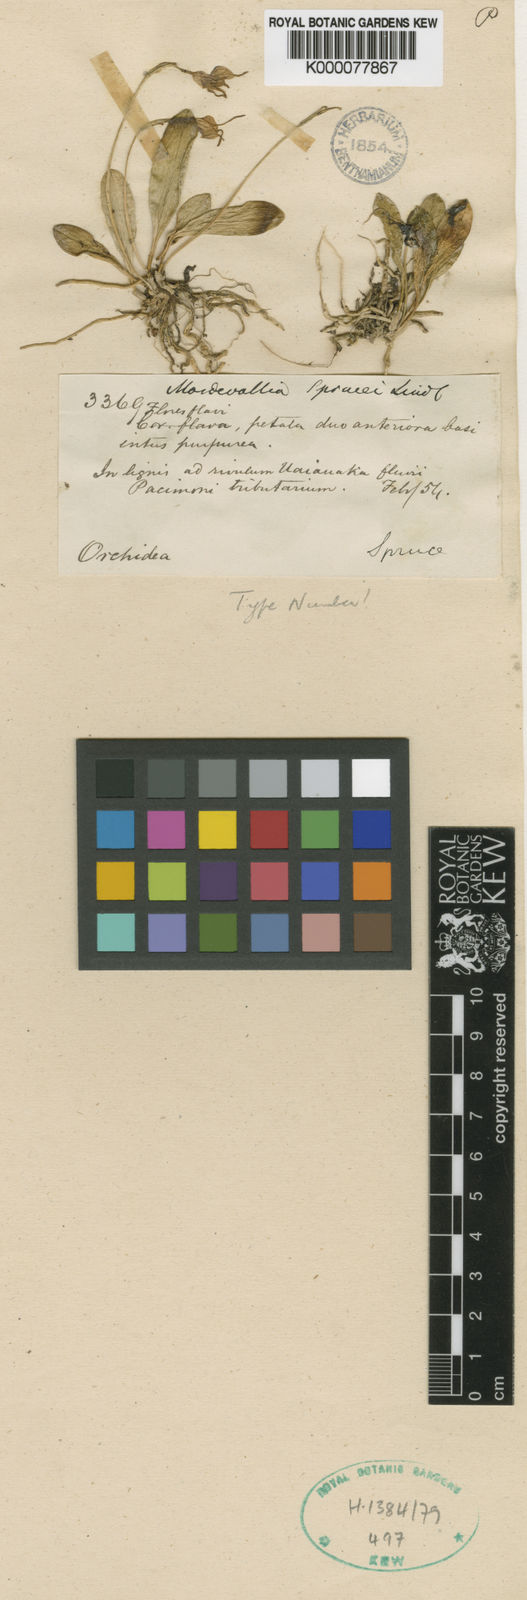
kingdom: Plantae
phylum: Tracheophyta
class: Liliopsida
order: Asparagales
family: Orchidaceae
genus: Masdevallia
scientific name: Masdevallia
